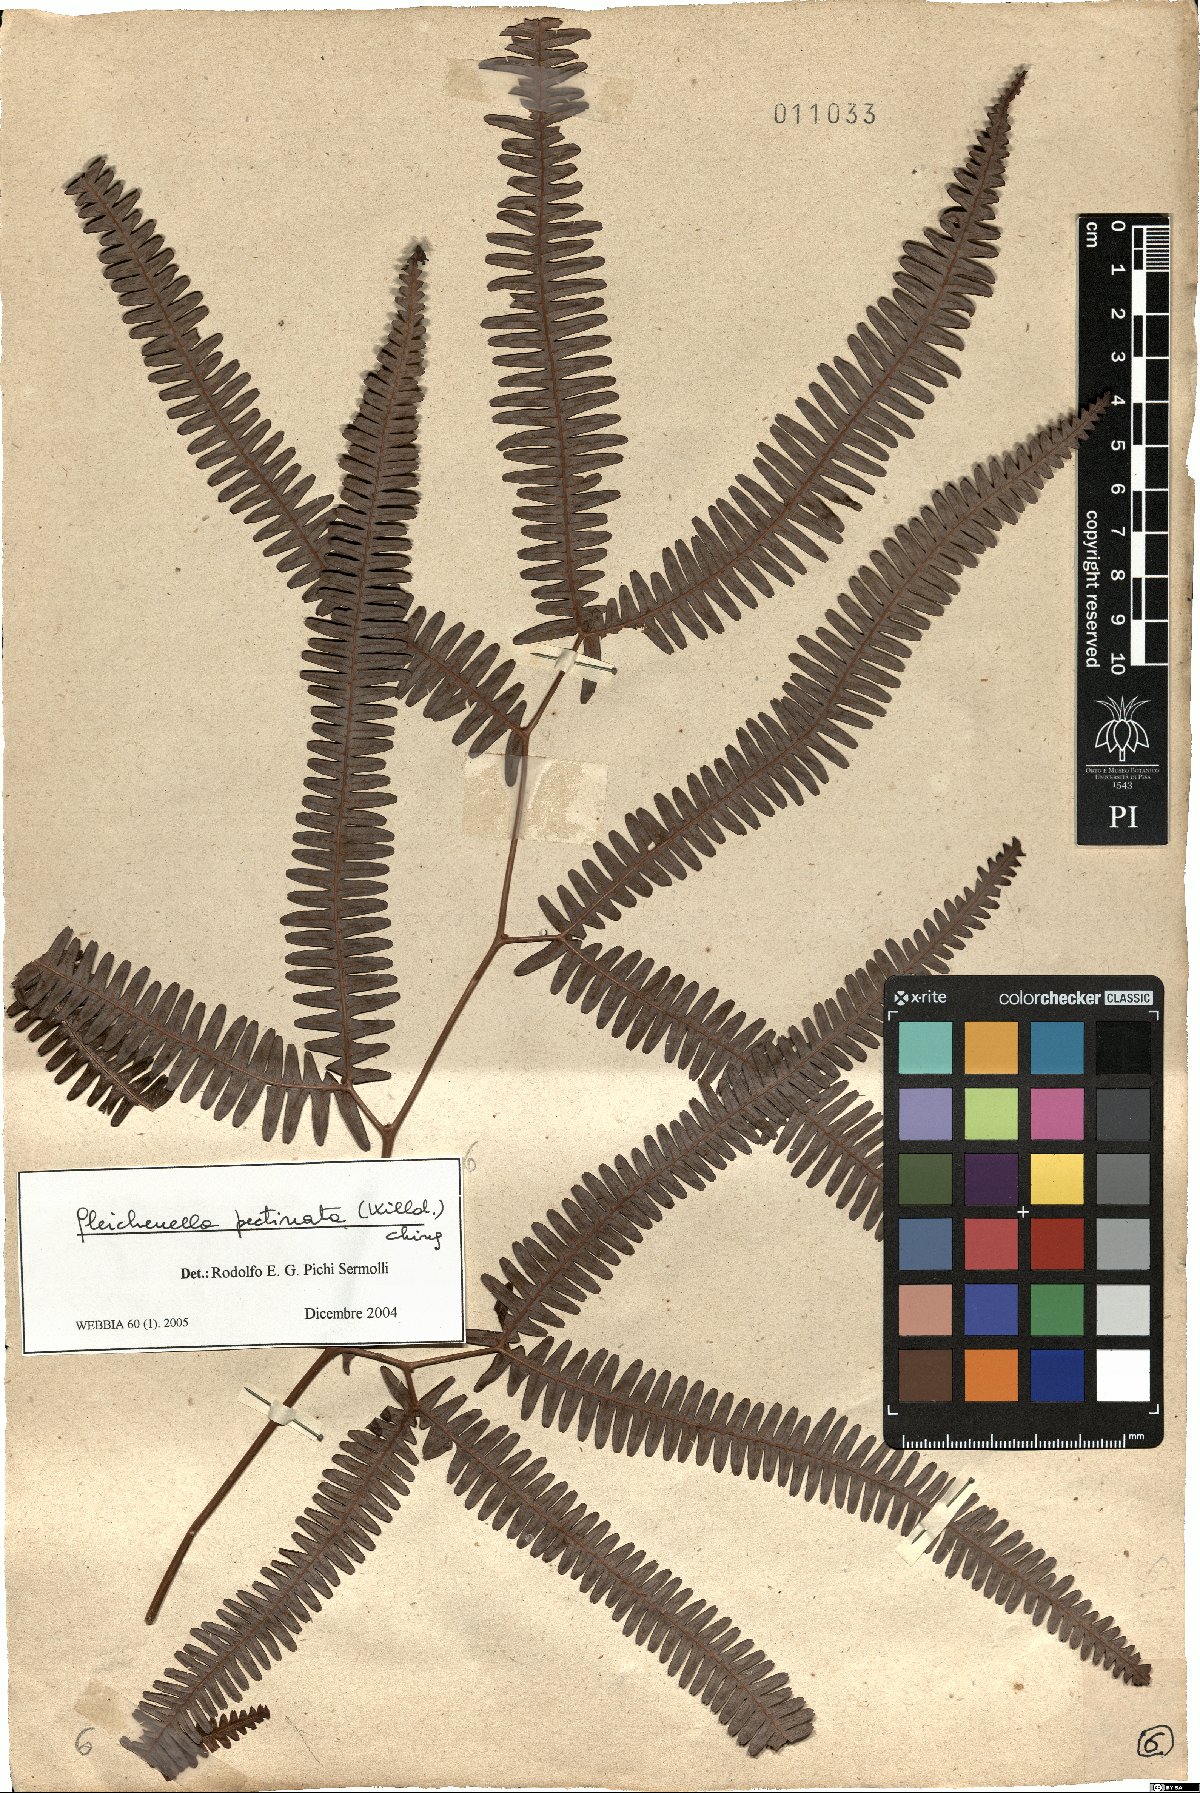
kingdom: Plantae
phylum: Tracheophyta
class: Polypodiopsida
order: Gleicheniales
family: Gleicheniaceae
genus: Gleichenella
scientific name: Gleichenella pectinata
